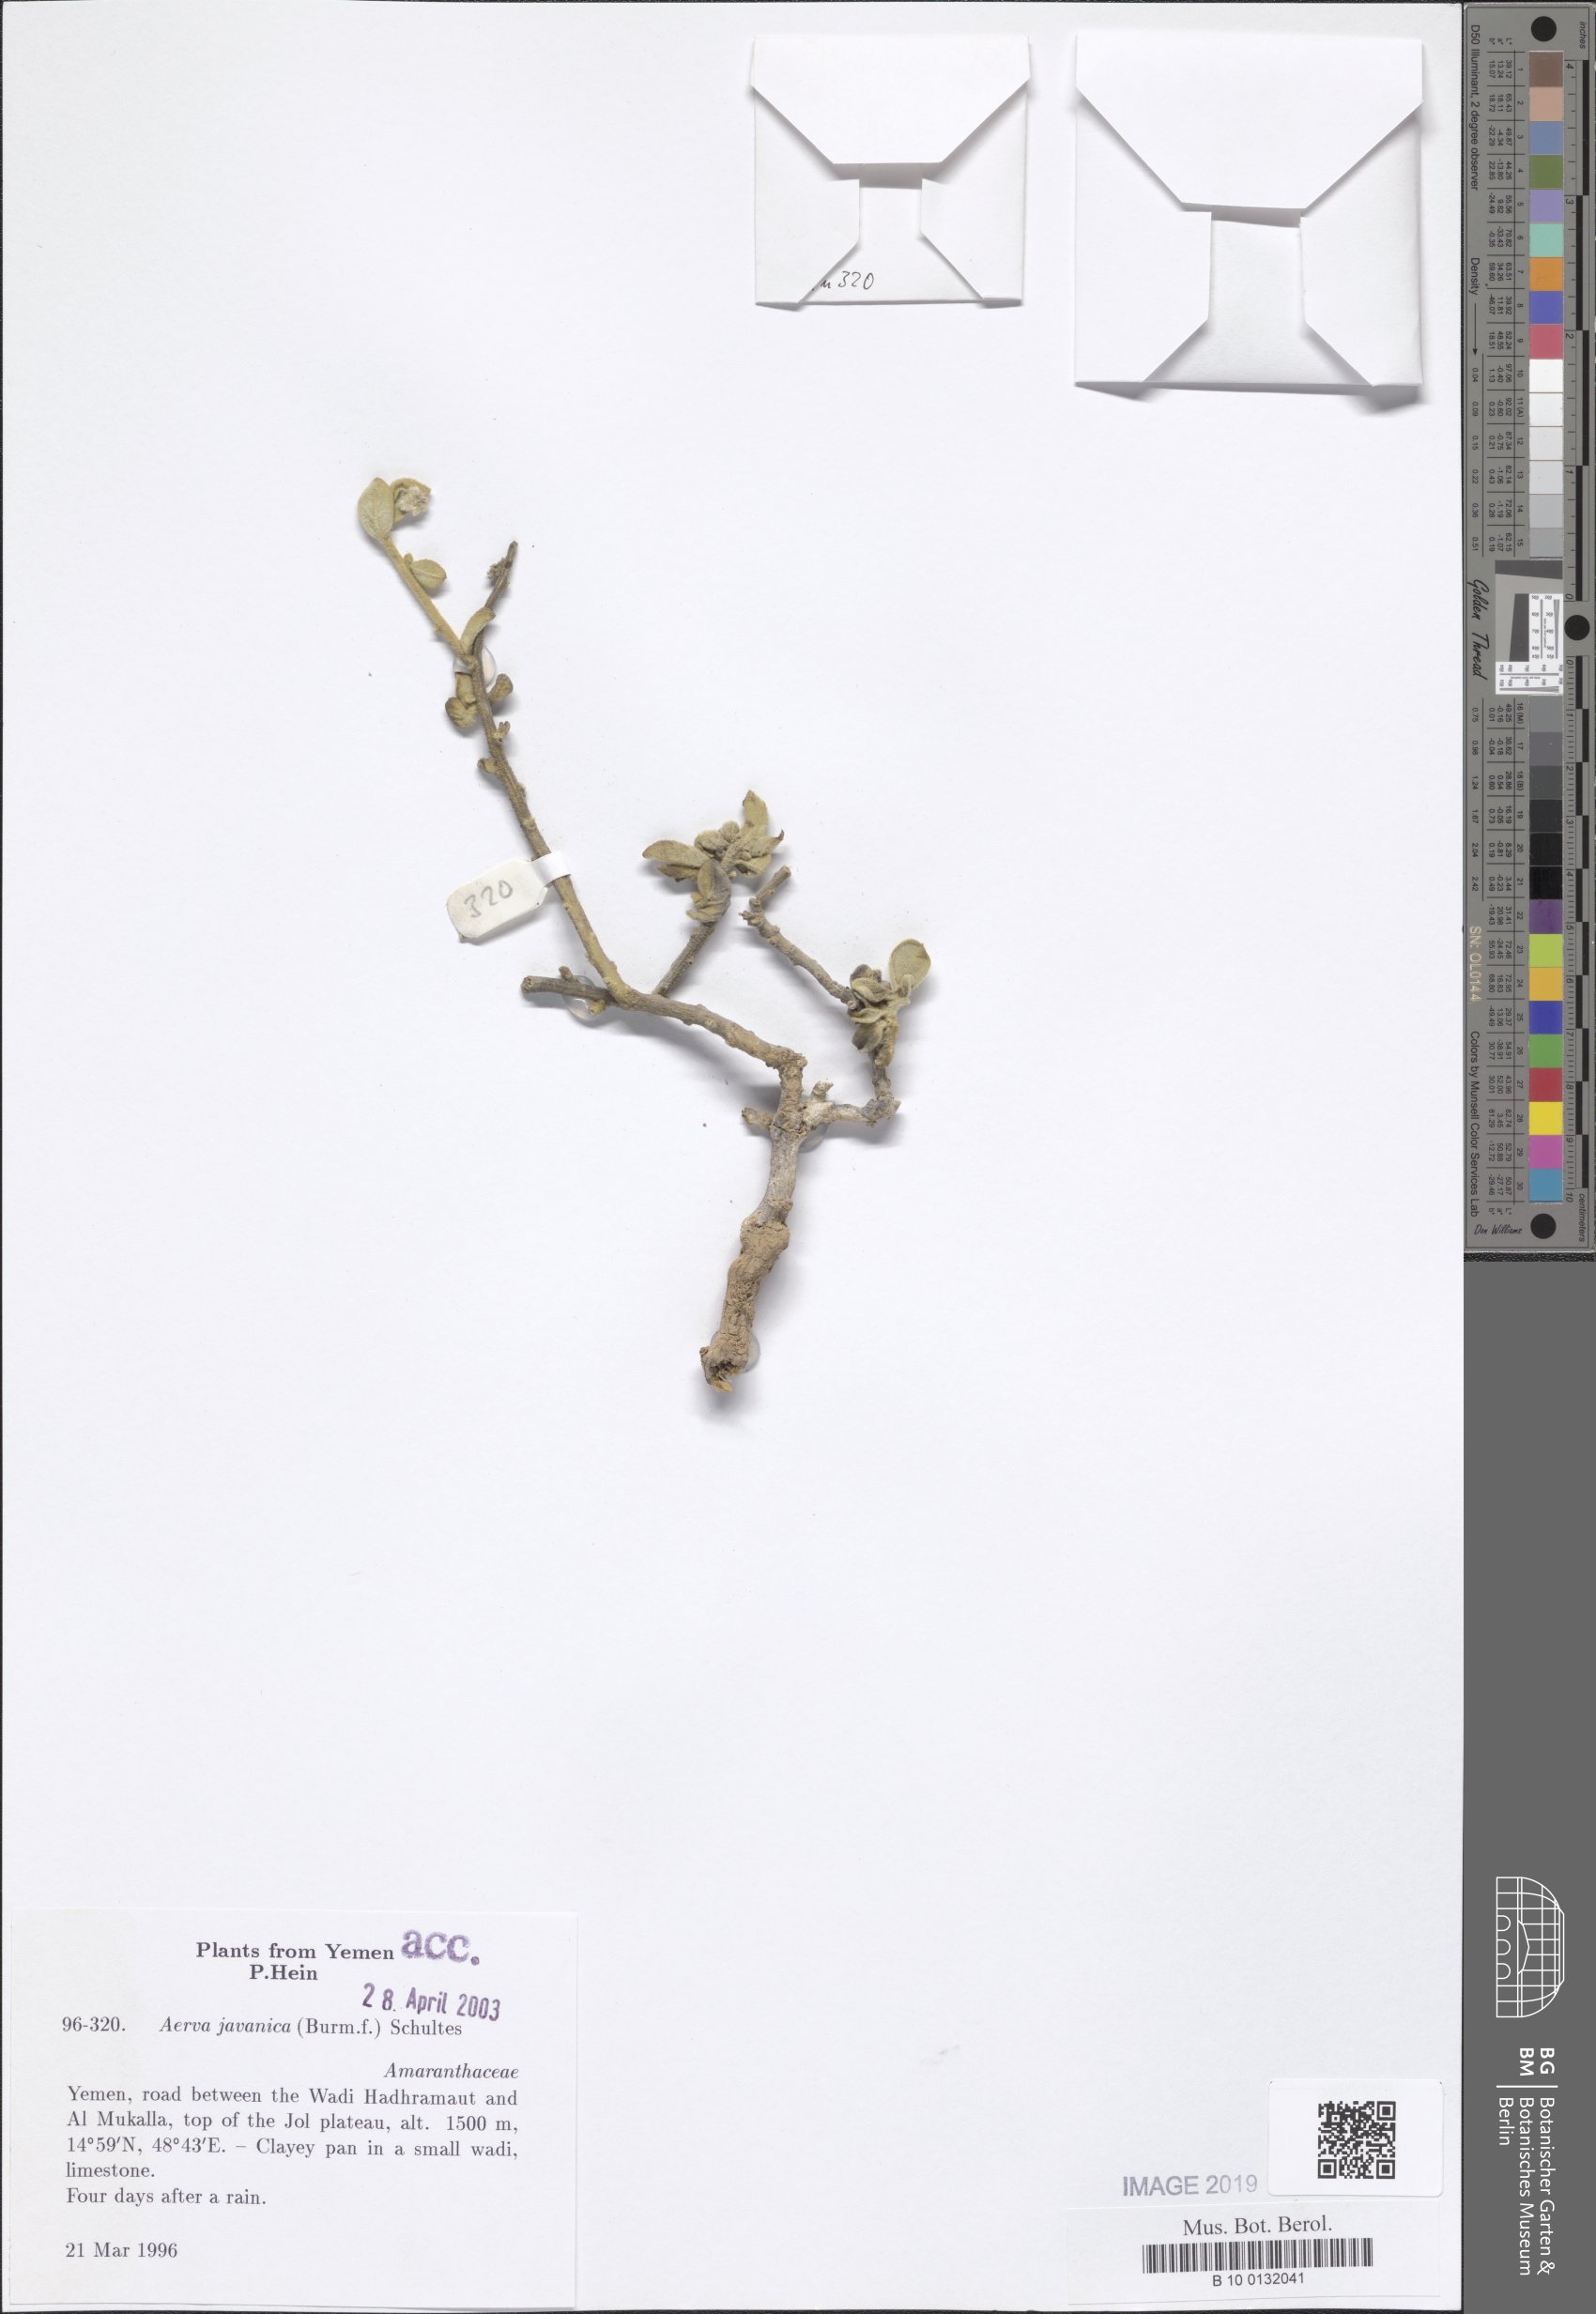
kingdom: Plantae
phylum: Tracheophyta
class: Magnoliopsida
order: Caryophyllales
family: Amaranthaceae
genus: Aerva
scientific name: Aerva javanica
